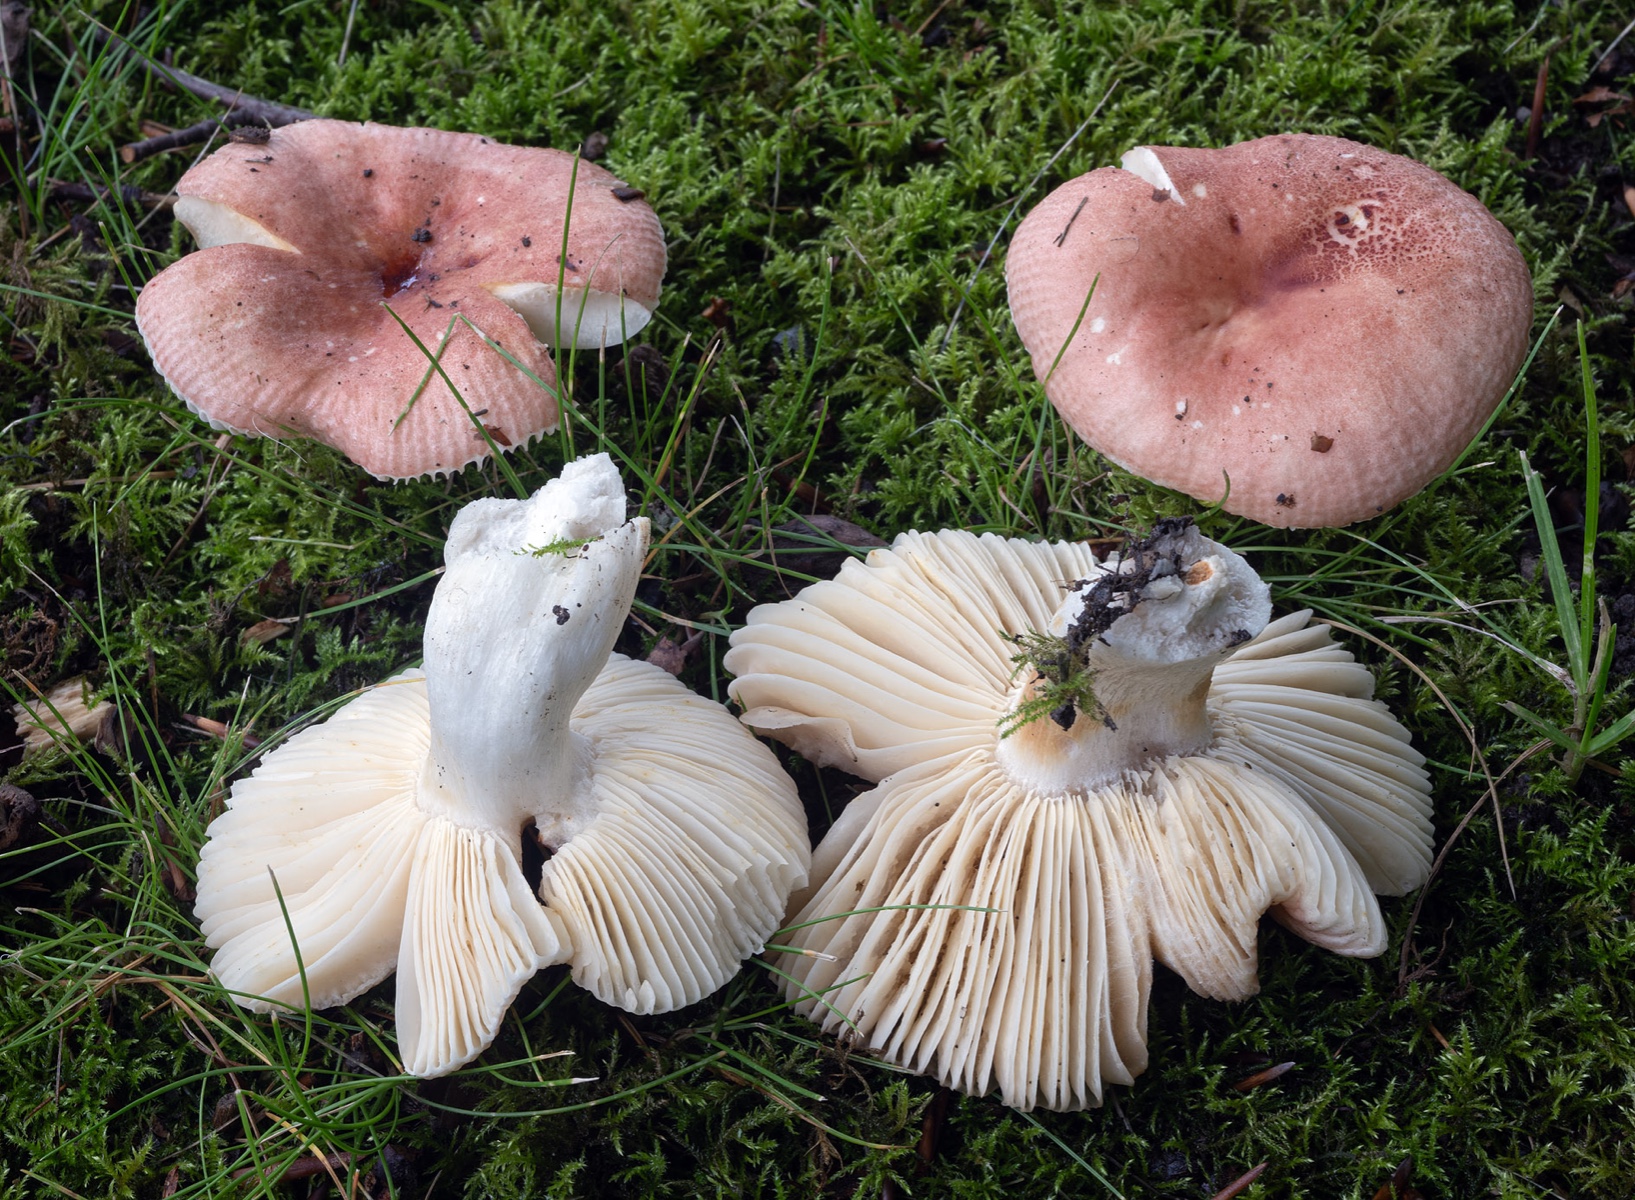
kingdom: Fungi
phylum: Basidiomycota
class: Agaricomycetes
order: Russulales
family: Russulaceae
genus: Russula
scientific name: Russula melzeri
